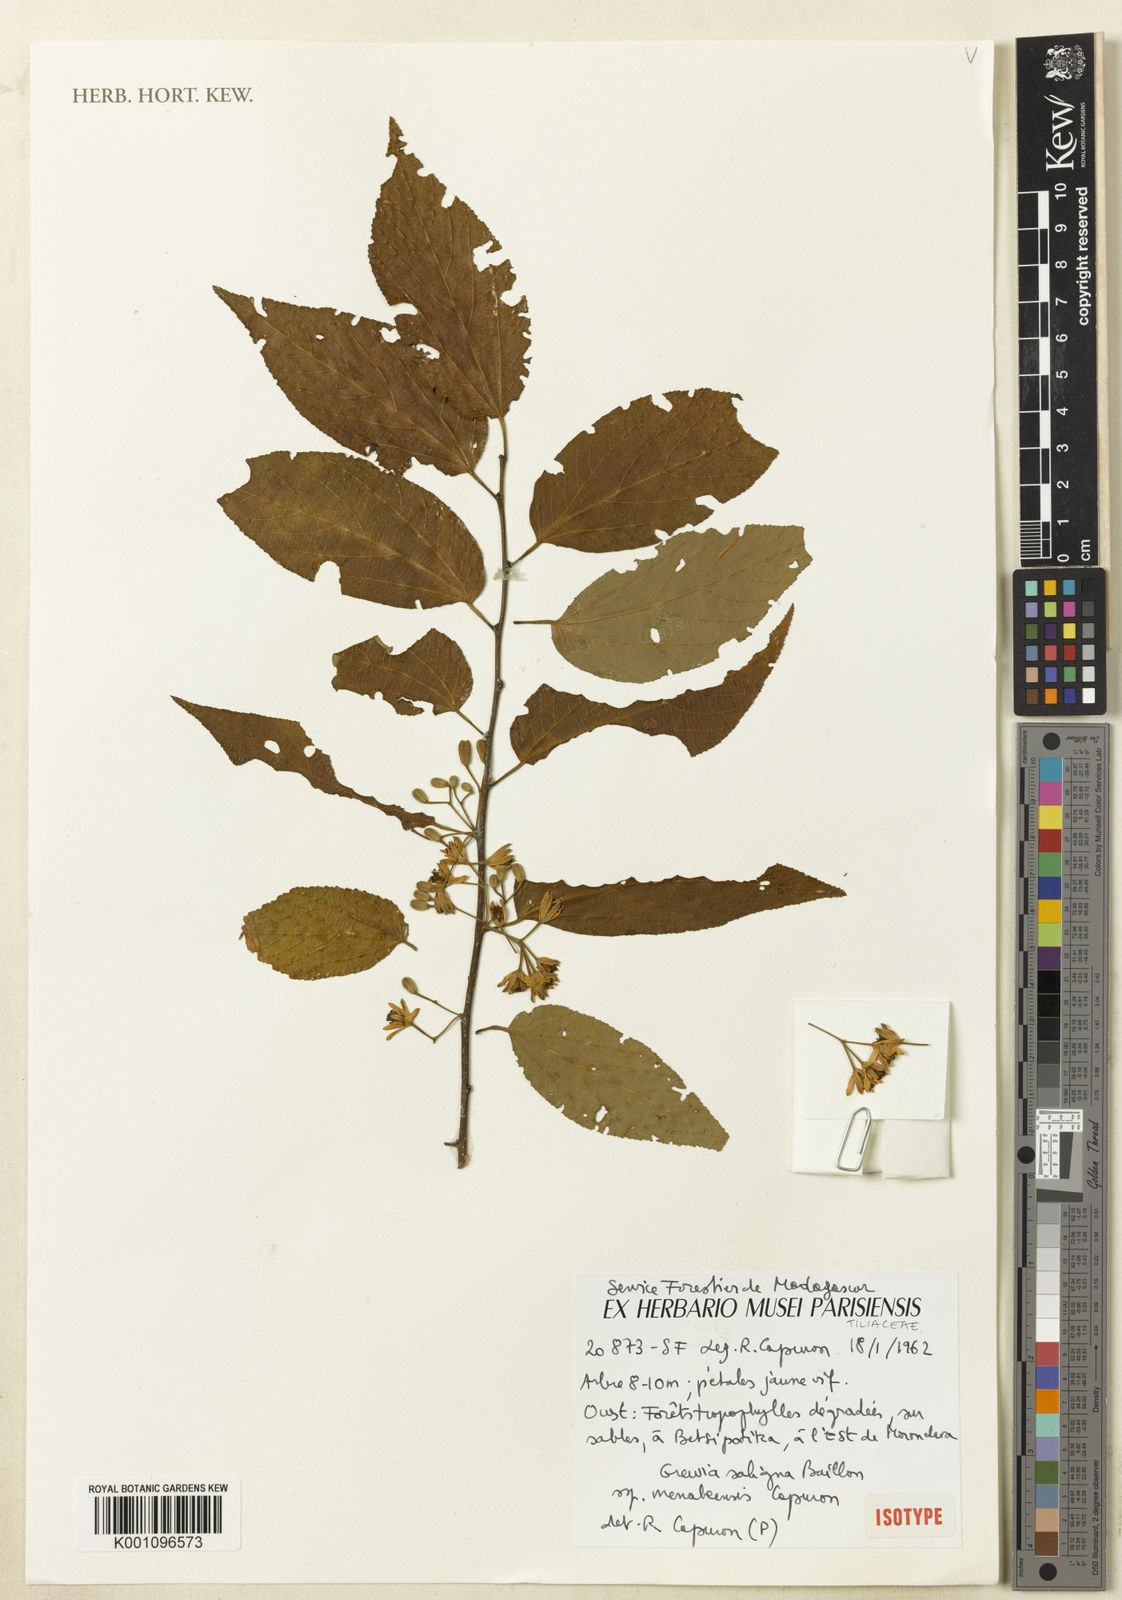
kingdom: Plantae
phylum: Tracheophyta
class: Magnoliopsida
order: Malvales
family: Malvaceae
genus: Grewia
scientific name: Grewia saligna
